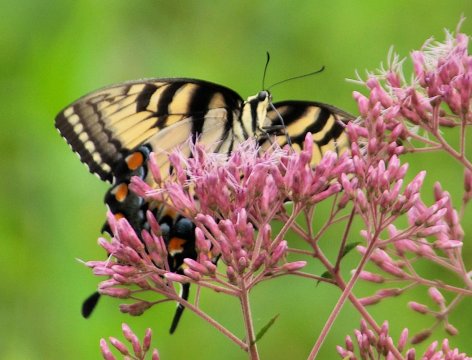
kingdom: Animalia
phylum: Arthropoda
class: Insecta
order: Lepidoptera
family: Papilionidae
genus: Pterourus
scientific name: Pterourus glaucus
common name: Eastern Tiger Swallowtail
